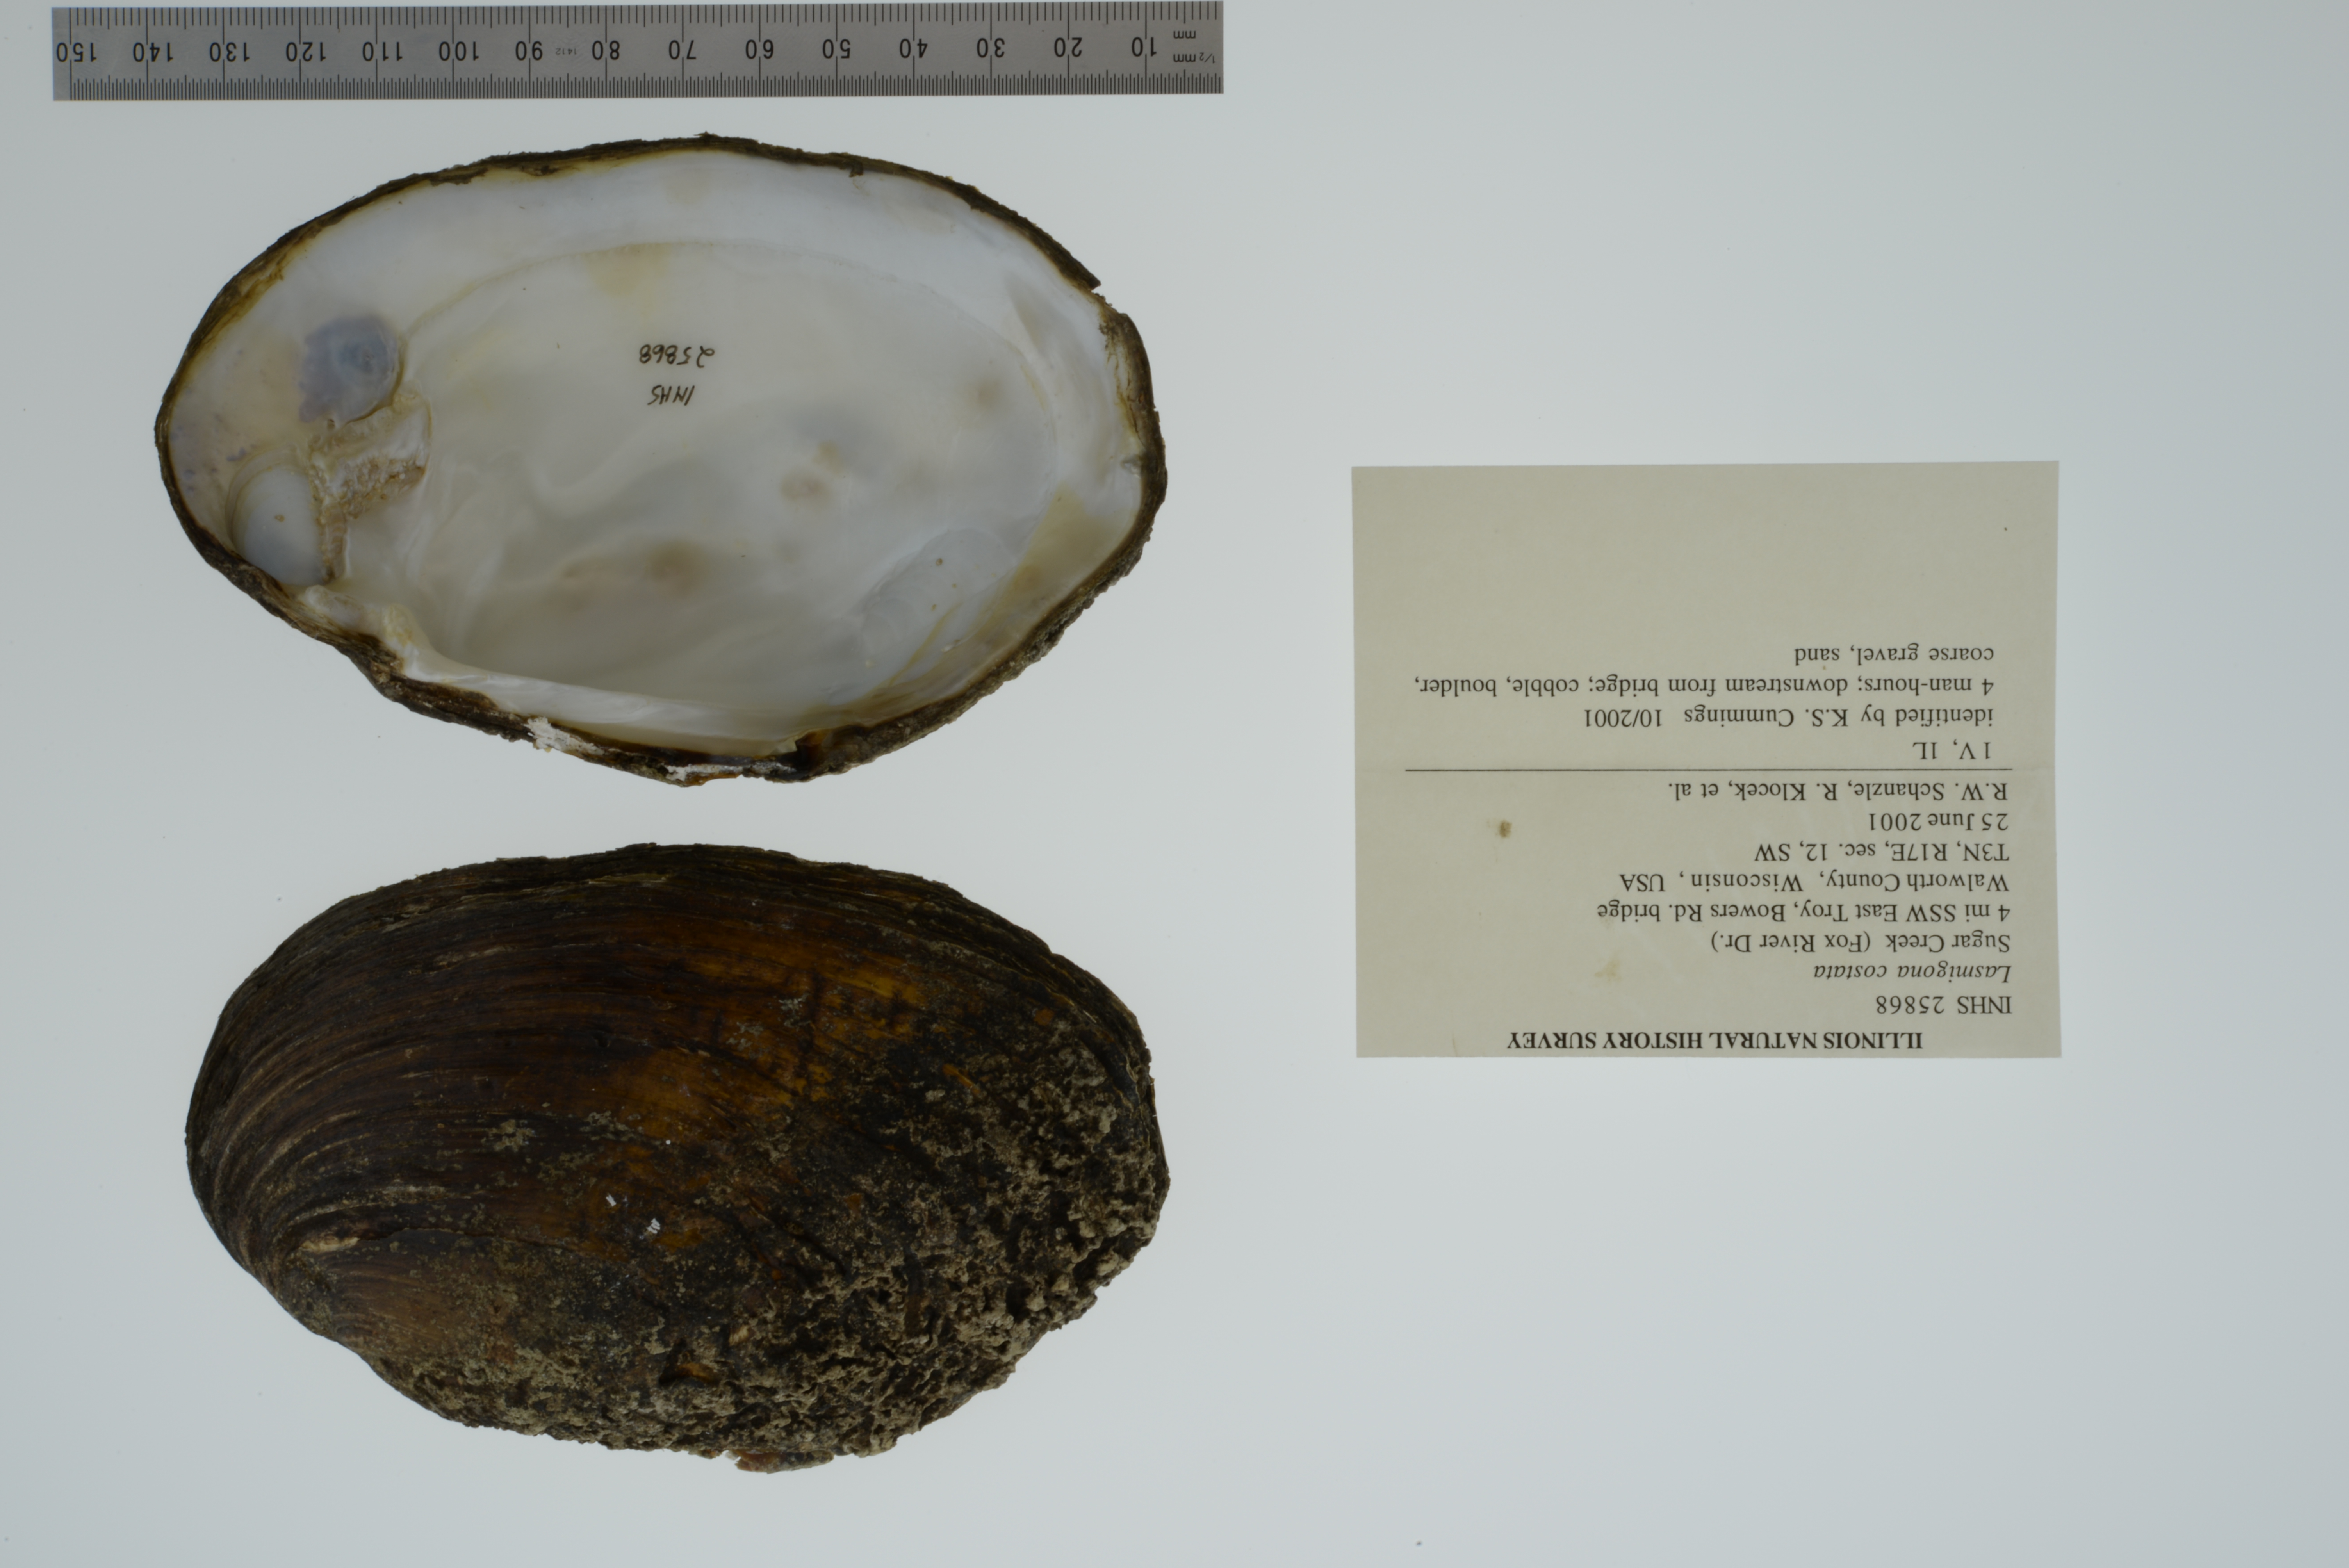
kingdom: Animalia
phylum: Mollusca
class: Bivalvia
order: Unionida
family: Unionidae
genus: Lasmigona
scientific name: Lasmigona costata
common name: Flutedshell
